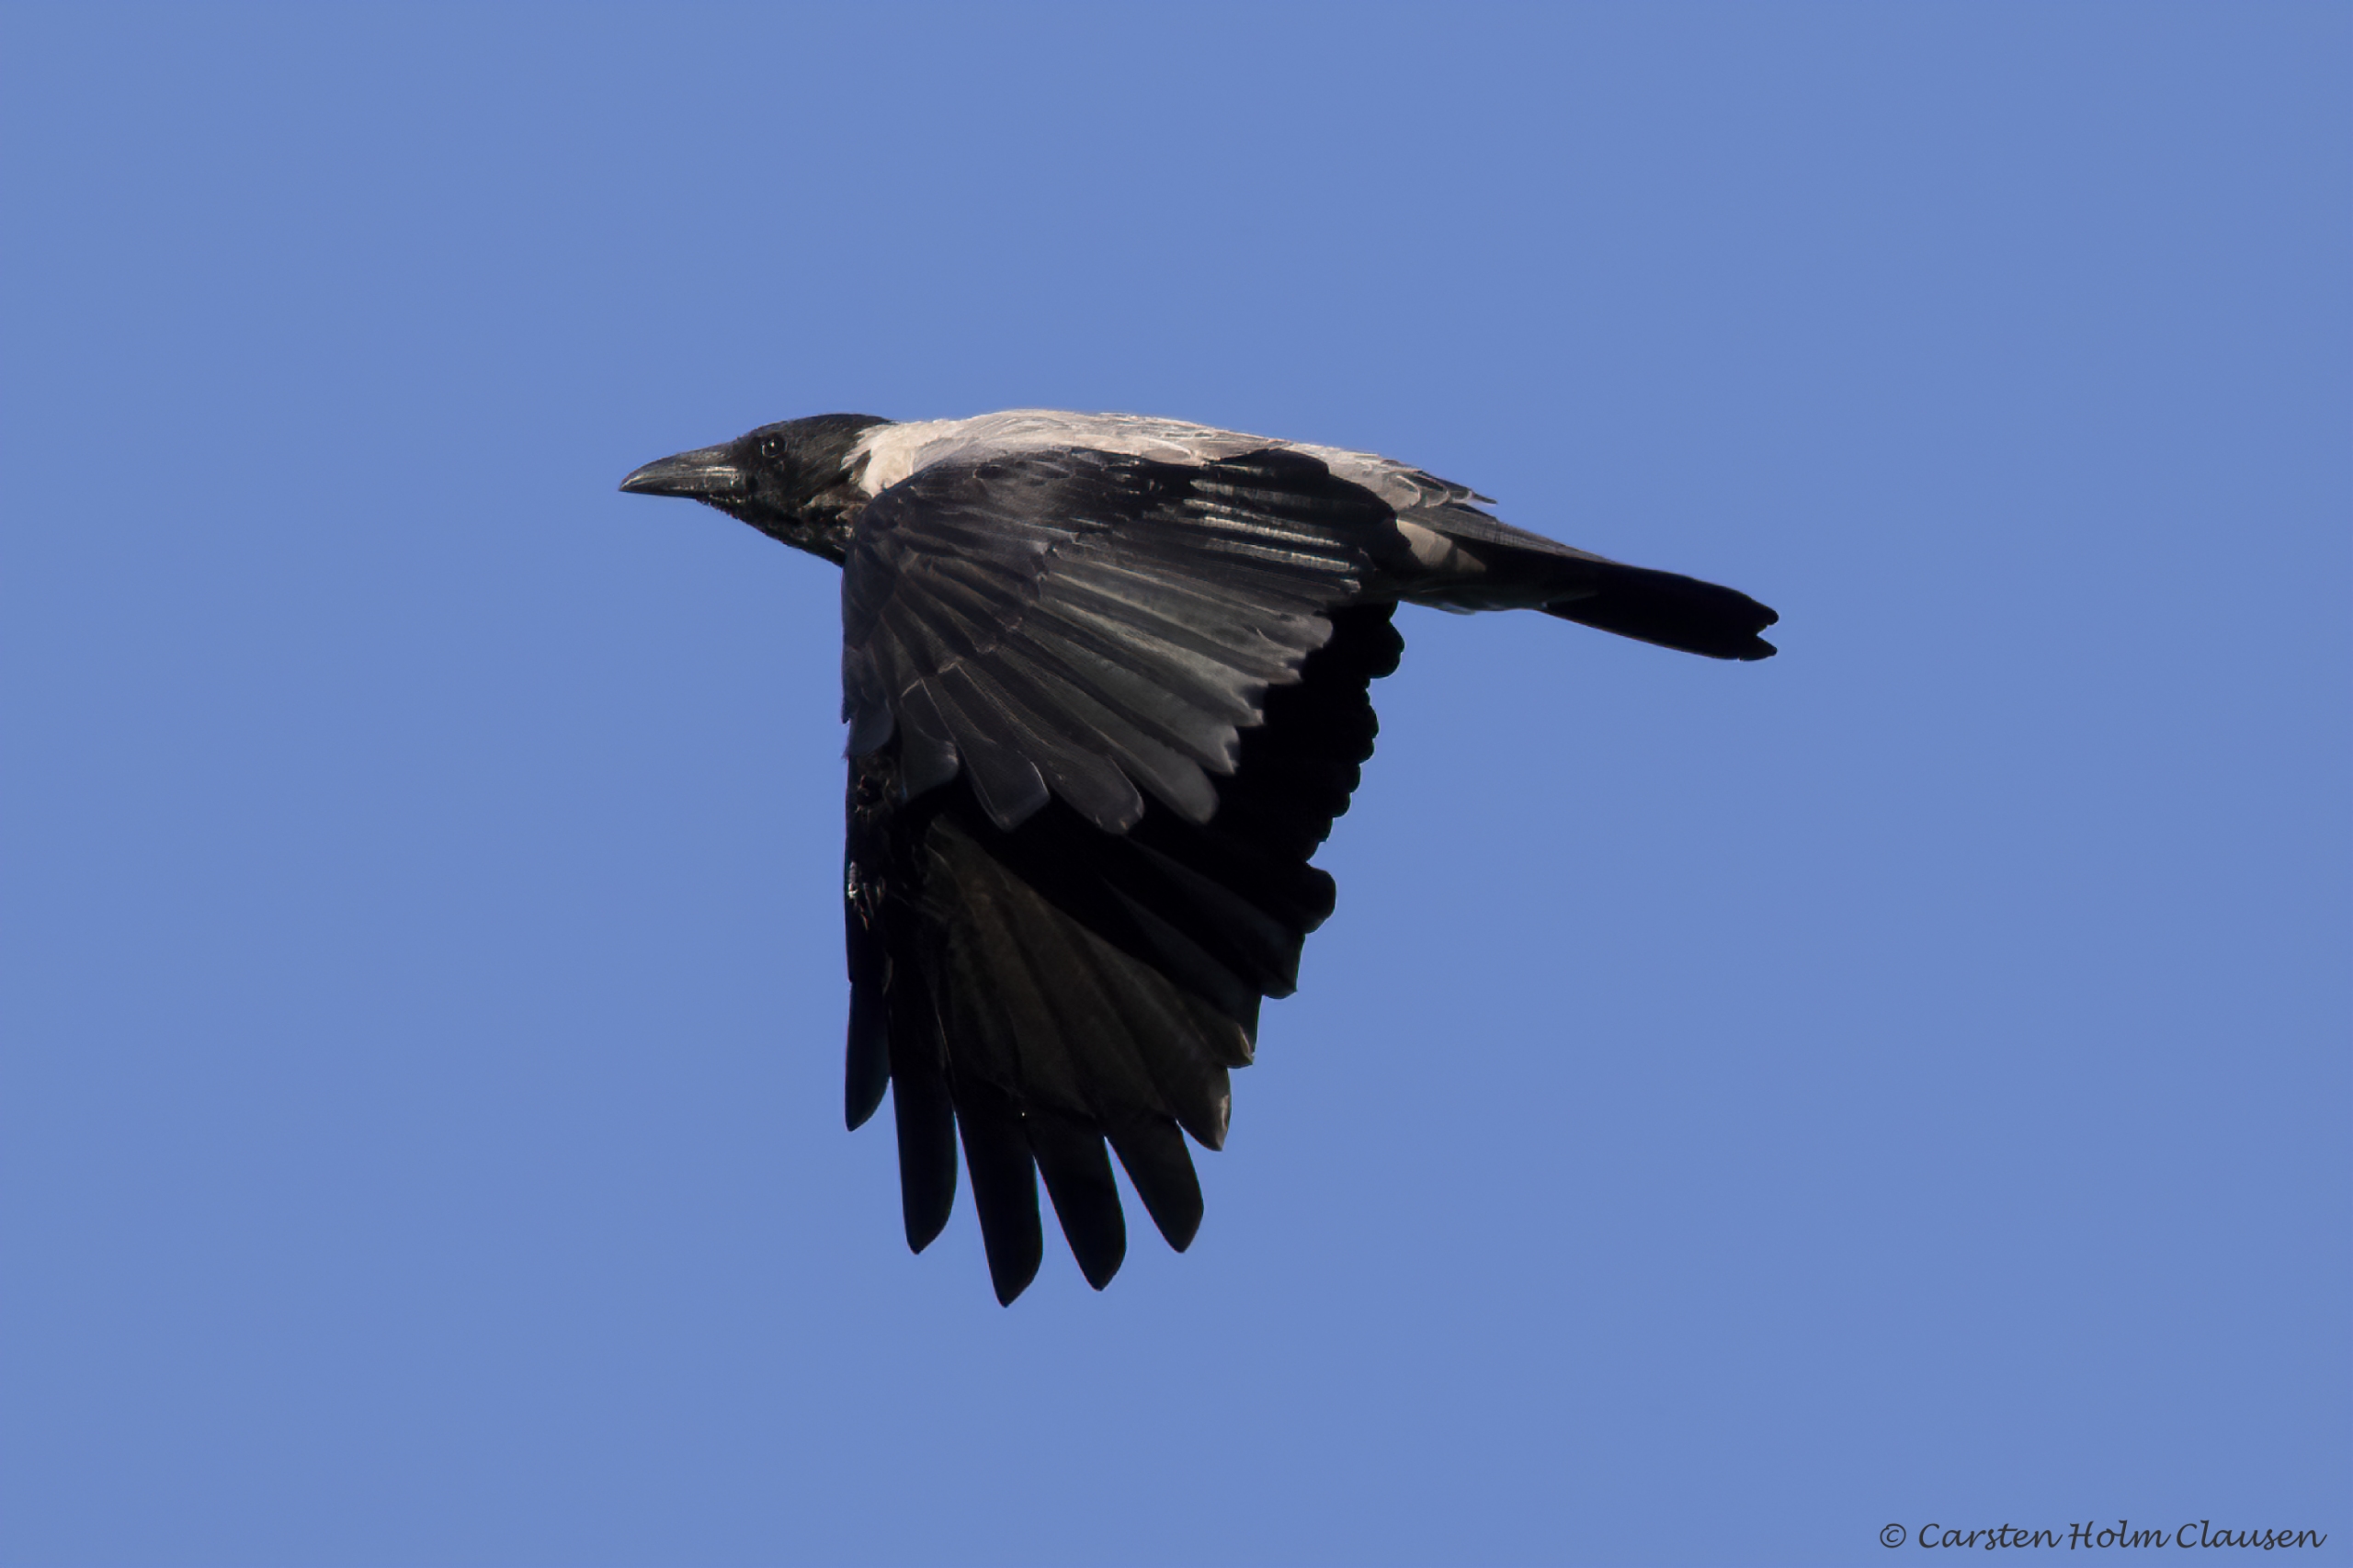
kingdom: Animalia
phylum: Chordata
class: Aves
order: Passeriformes
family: Corvidae
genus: Corvus
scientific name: Corvus cornix
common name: Gråkrage
